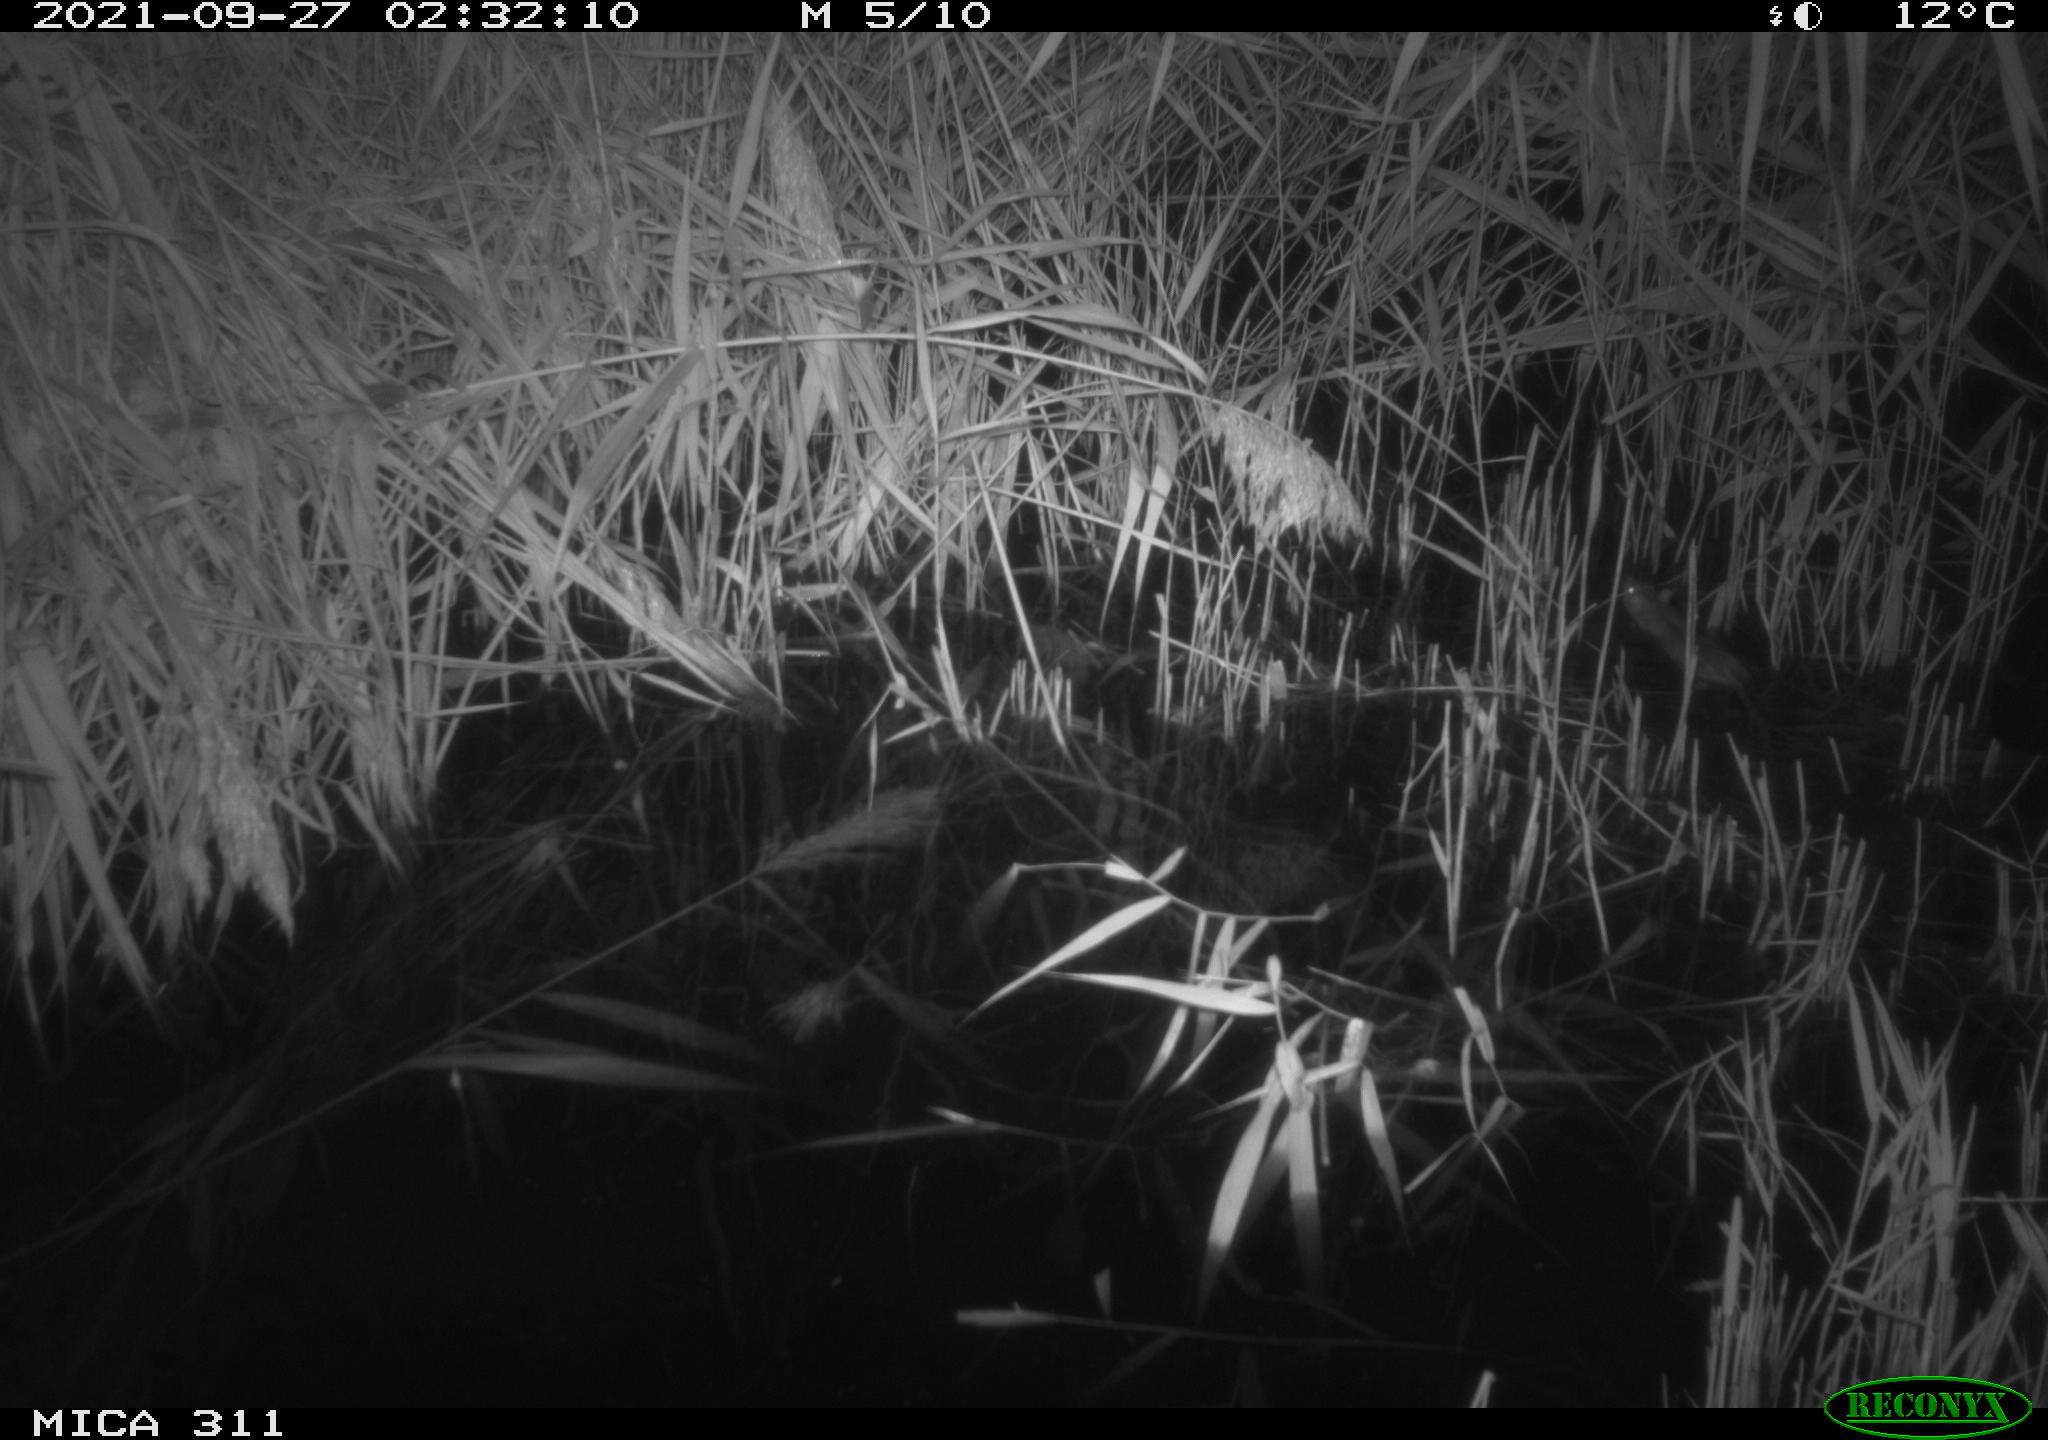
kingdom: Animalia
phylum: Chordata
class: Mammalia
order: Rodentia
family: Muridae
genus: Rattus
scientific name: Rattus norvegicus
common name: Brown rat
